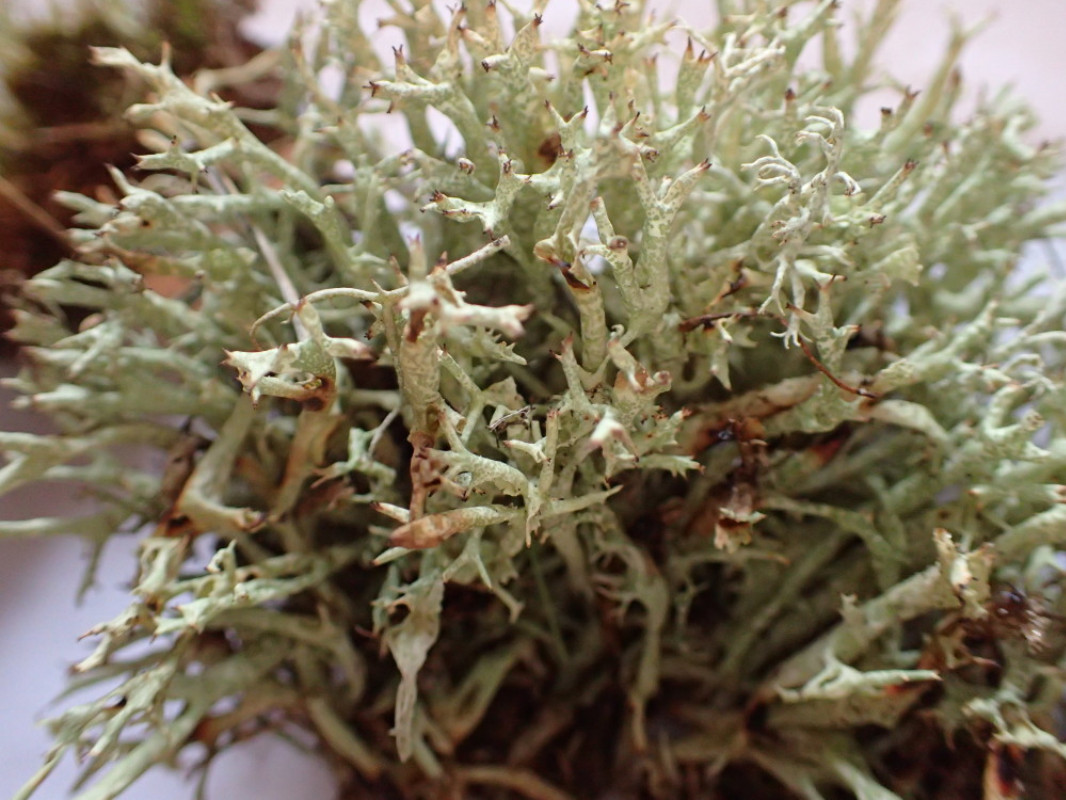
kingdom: Fungi
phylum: Ascomycota
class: Lecanoromycetes
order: Lecanorales
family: Cladoniaceae
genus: Cladonia
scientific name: Cladonia uncialis
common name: pigget bægerlav
